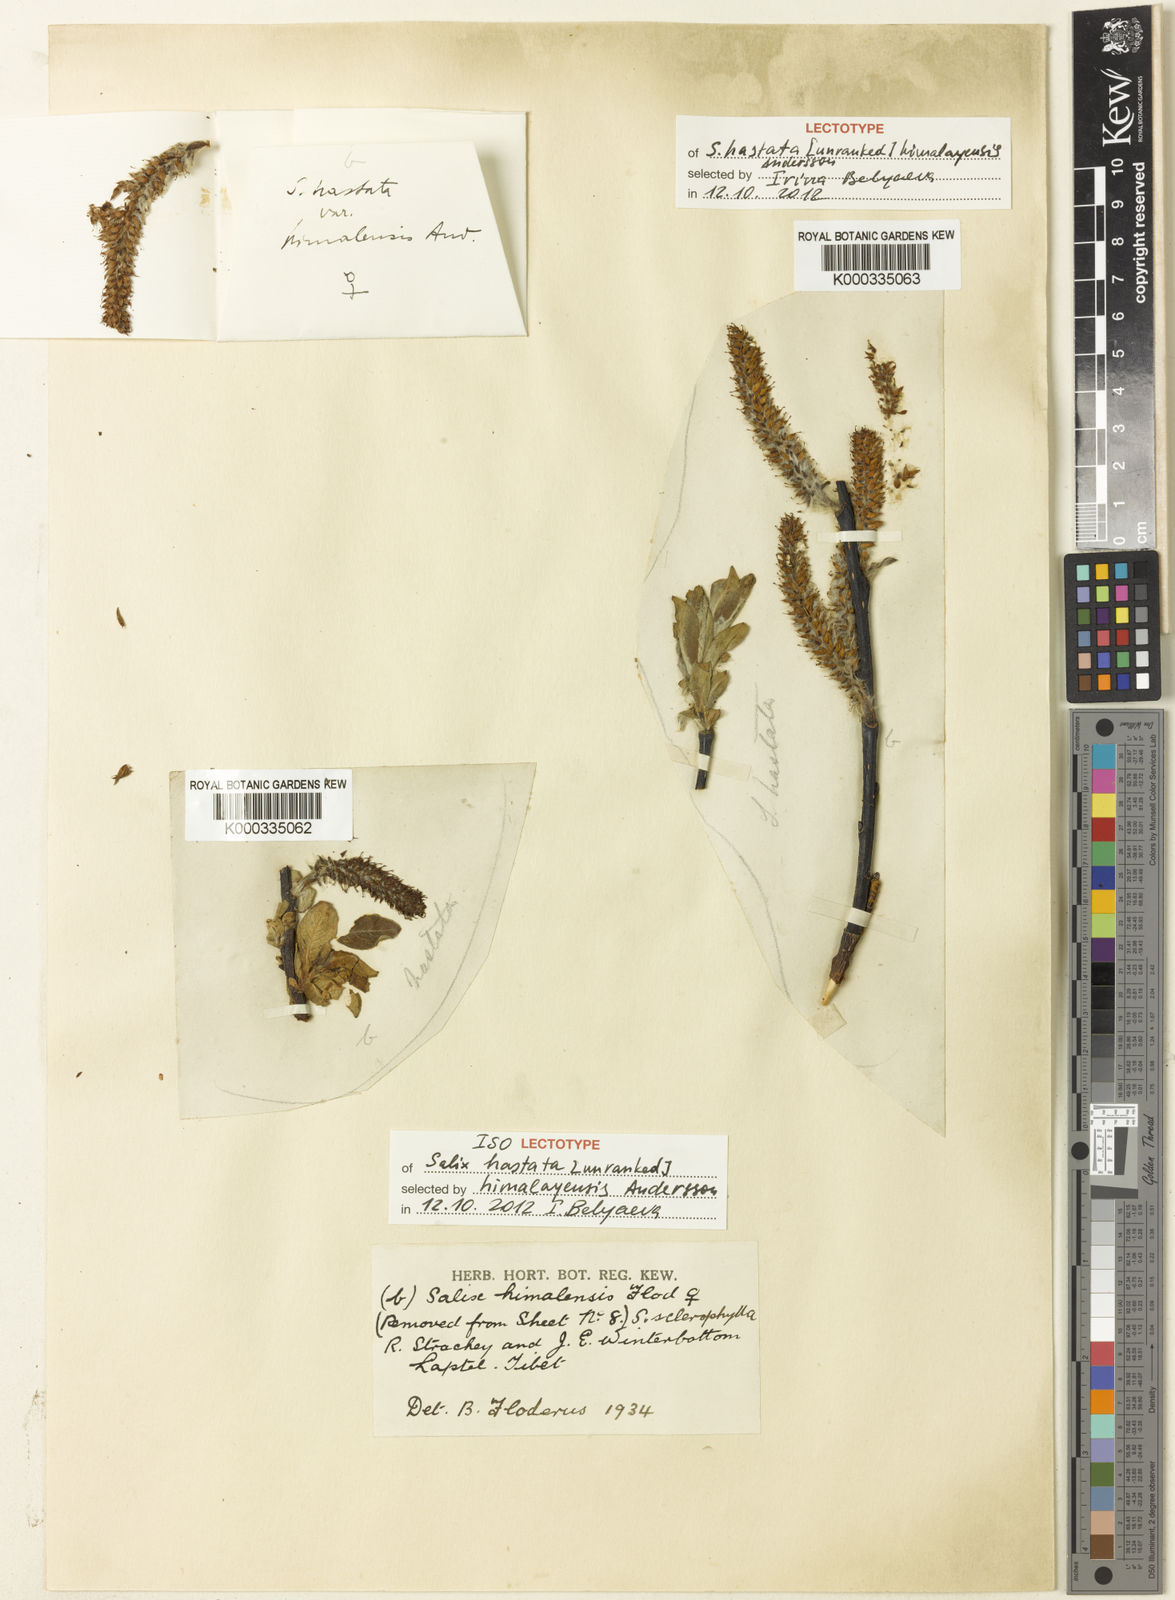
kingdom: Plantae
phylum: Tracheophyta
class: Magnoliopsida
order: Malpighiales
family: Salicaceae
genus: Salix
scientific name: Salix karelinii
